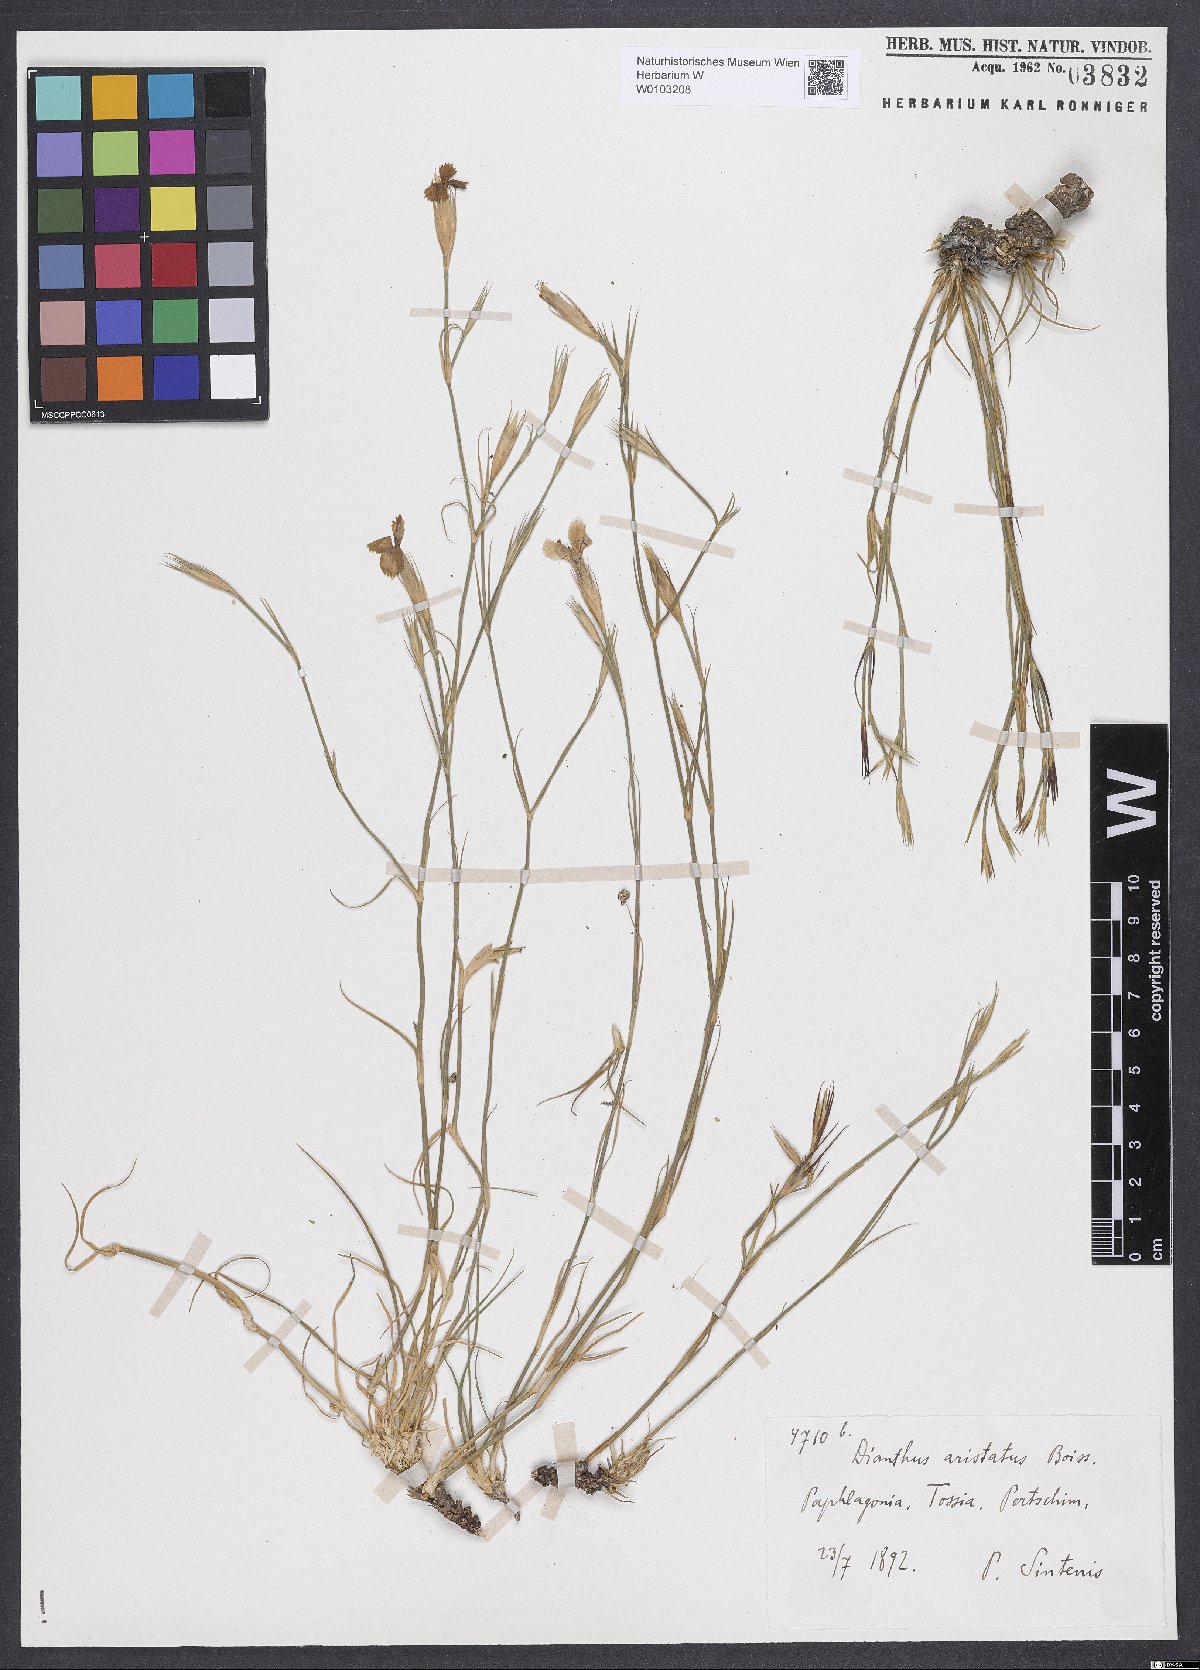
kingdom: Plantae
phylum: Tracheophyta
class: Magnoliopsida
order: Caryophyllales
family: Caryophyllaceae
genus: Dianthus
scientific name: Dianthus aristatus
